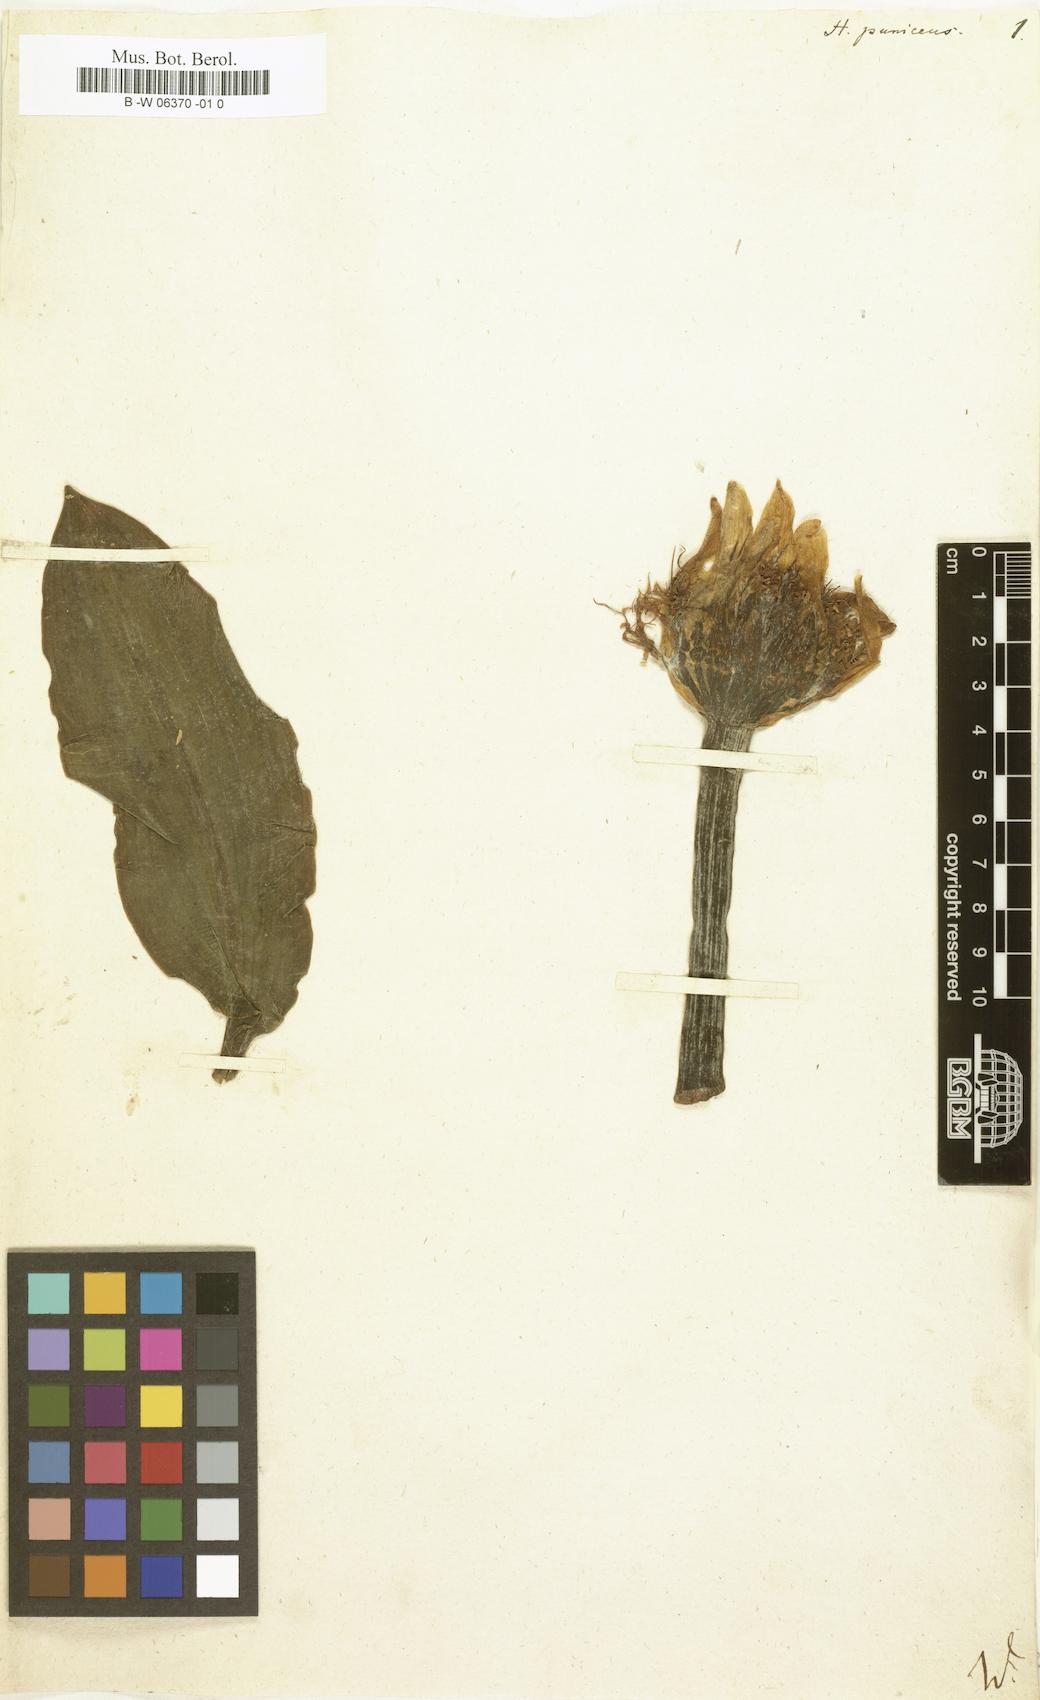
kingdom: Plantae
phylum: Tracheophyta
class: Liliopsida
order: Asparagales
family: Amaryllidaceae
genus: Scadoxus
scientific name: Scadoxus puniceus
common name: Royal-paintbrush
